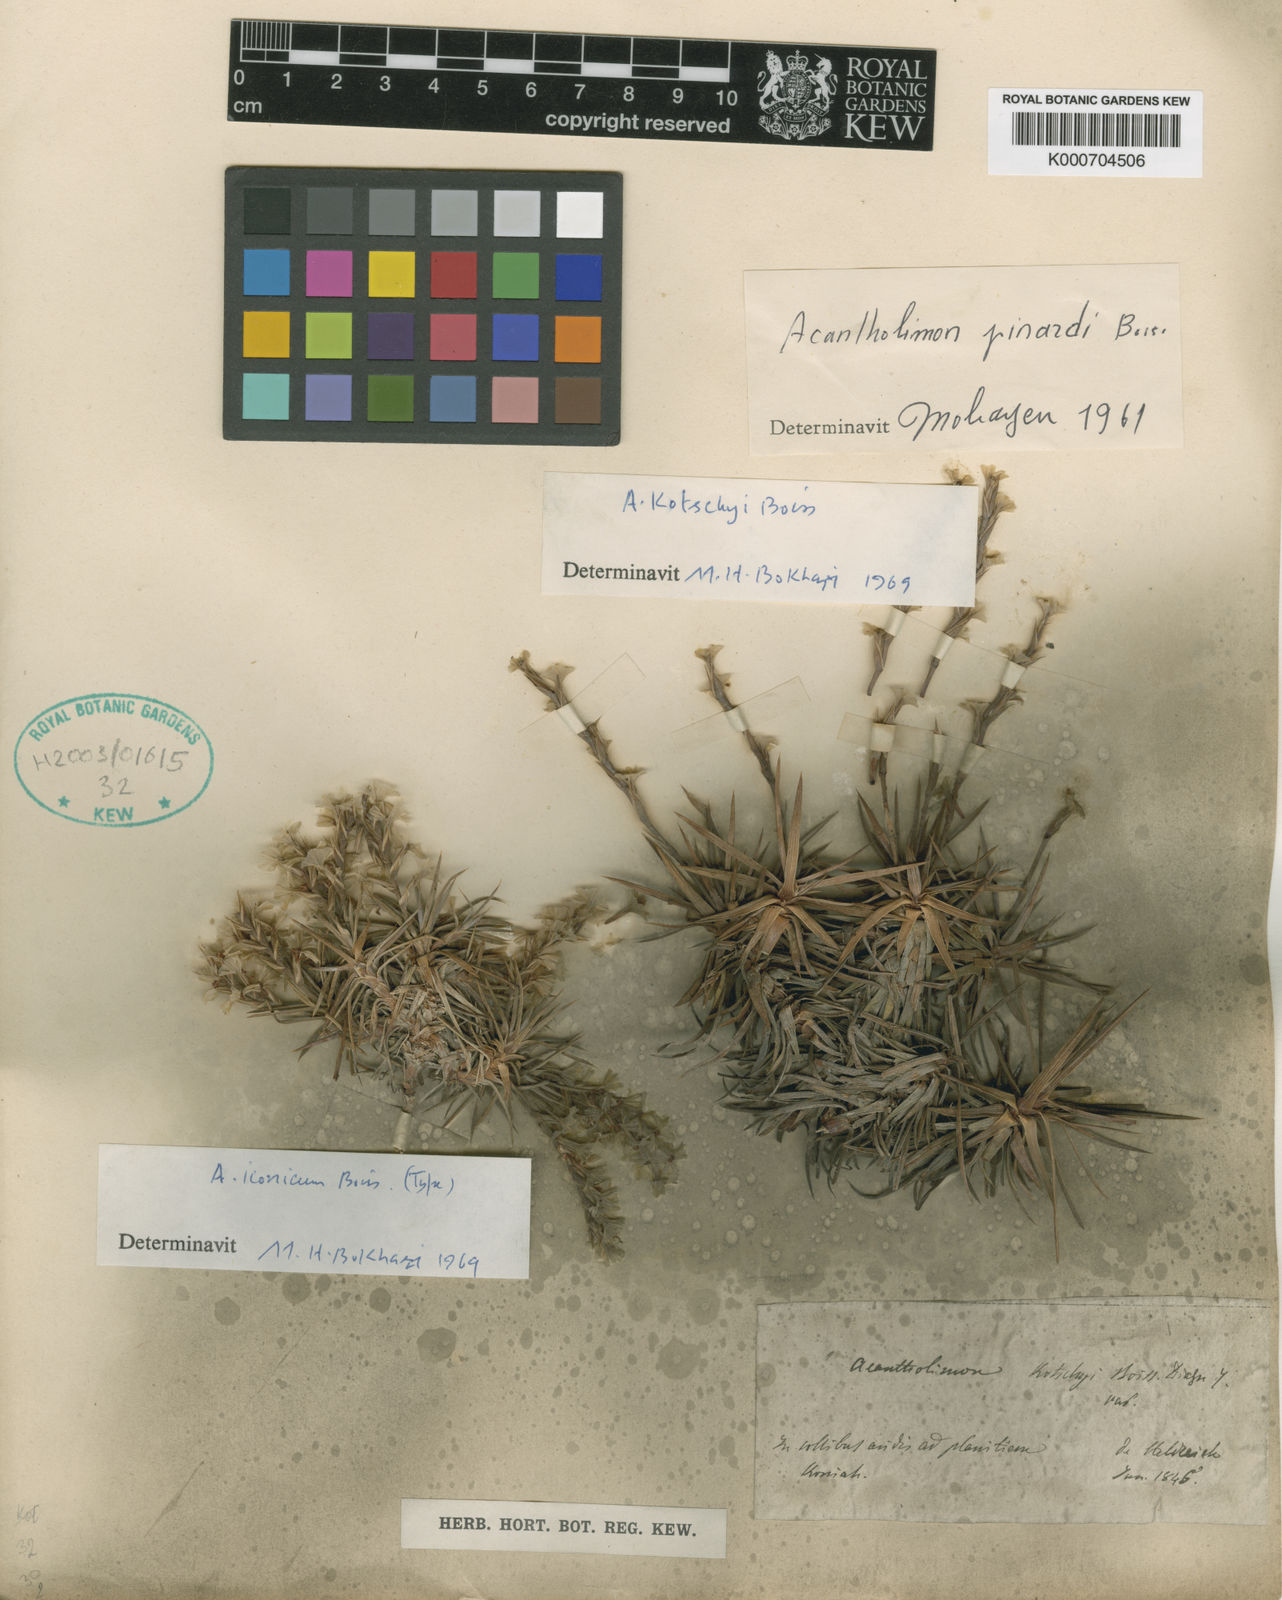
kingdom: Plantae
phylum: Tracheophyta
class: Magnoliopsida
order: Caryophyllales
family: Plumbaginaceae
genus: Acantholimon
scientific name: Acantholimon iconicum
